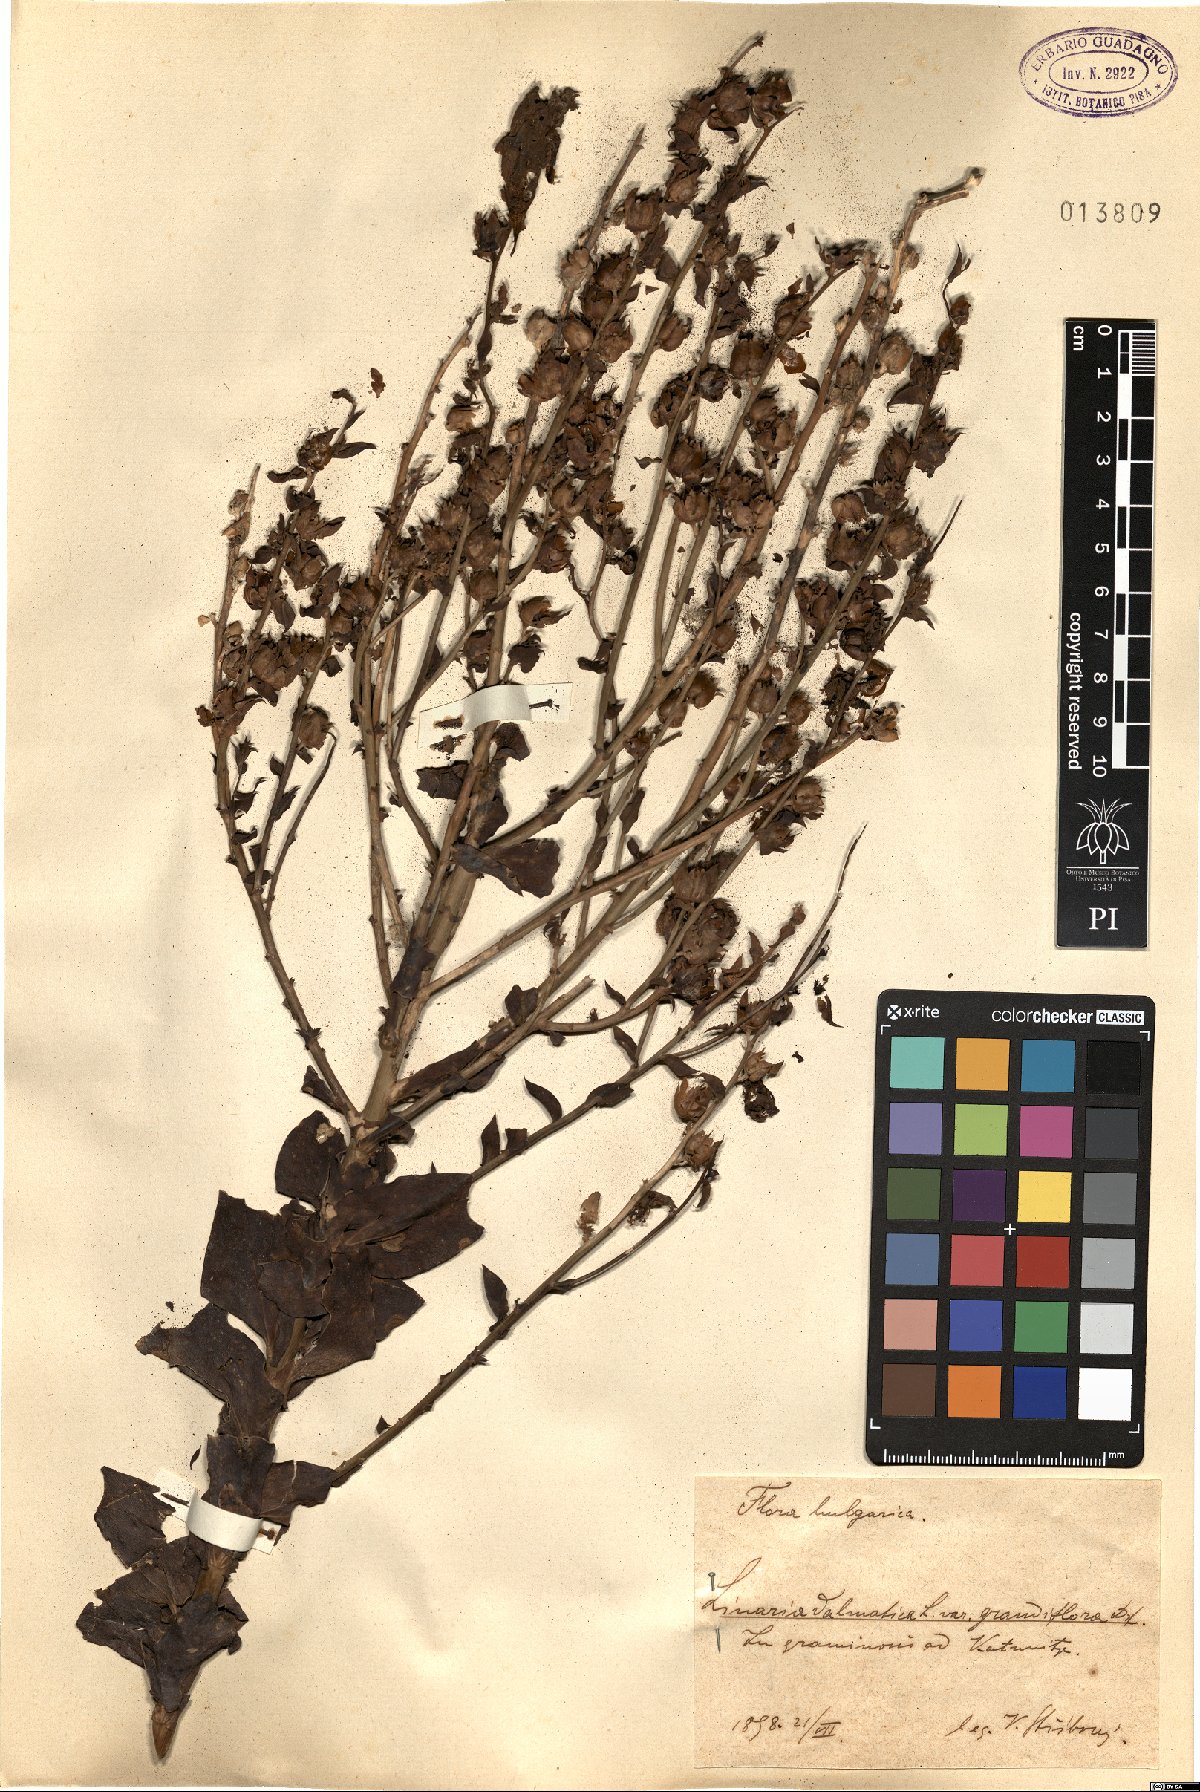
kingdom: Plantae
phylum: Tracheophyta
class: Magnoliopsida
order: Lamiales
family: Plantaginaceae
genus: Linaria
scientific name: Linaria grandiflora
